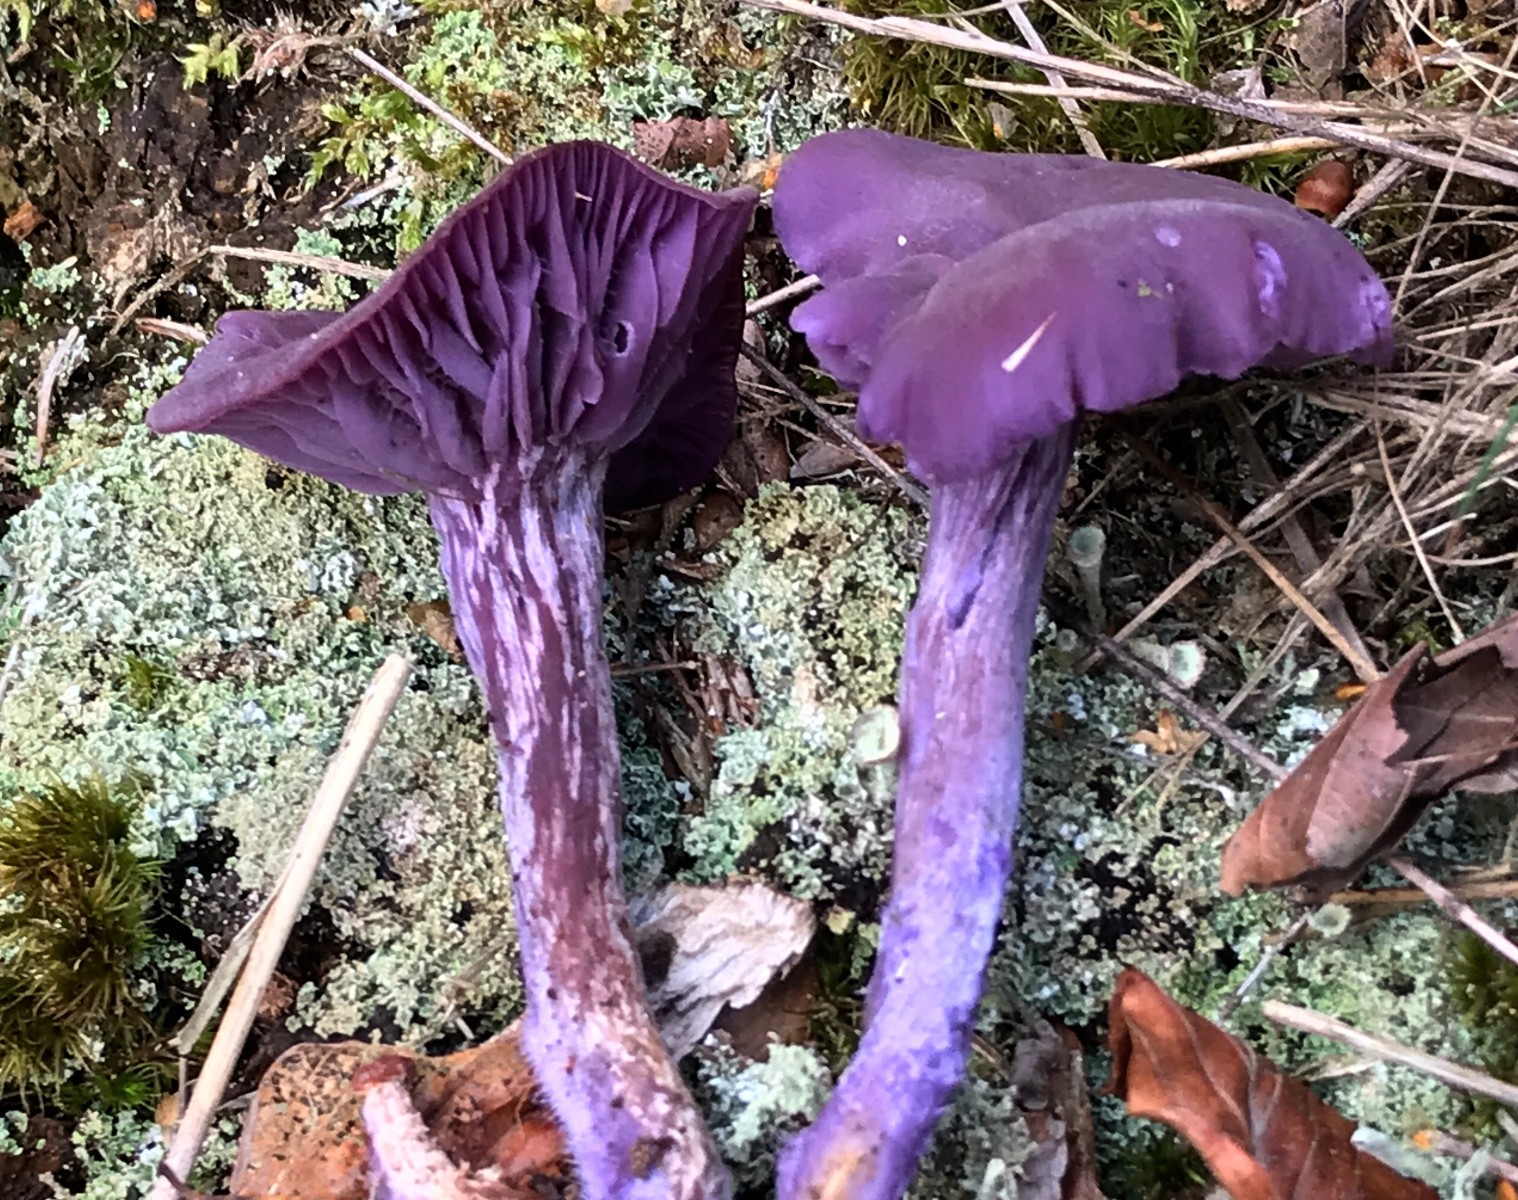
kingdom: Fungi
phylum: Basidiomycota
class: Agaricomycetes
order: Agaricales
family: Hydnangiaceae
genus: Laccaria
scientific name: Laccaria amethystina
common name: violet ametysthat
